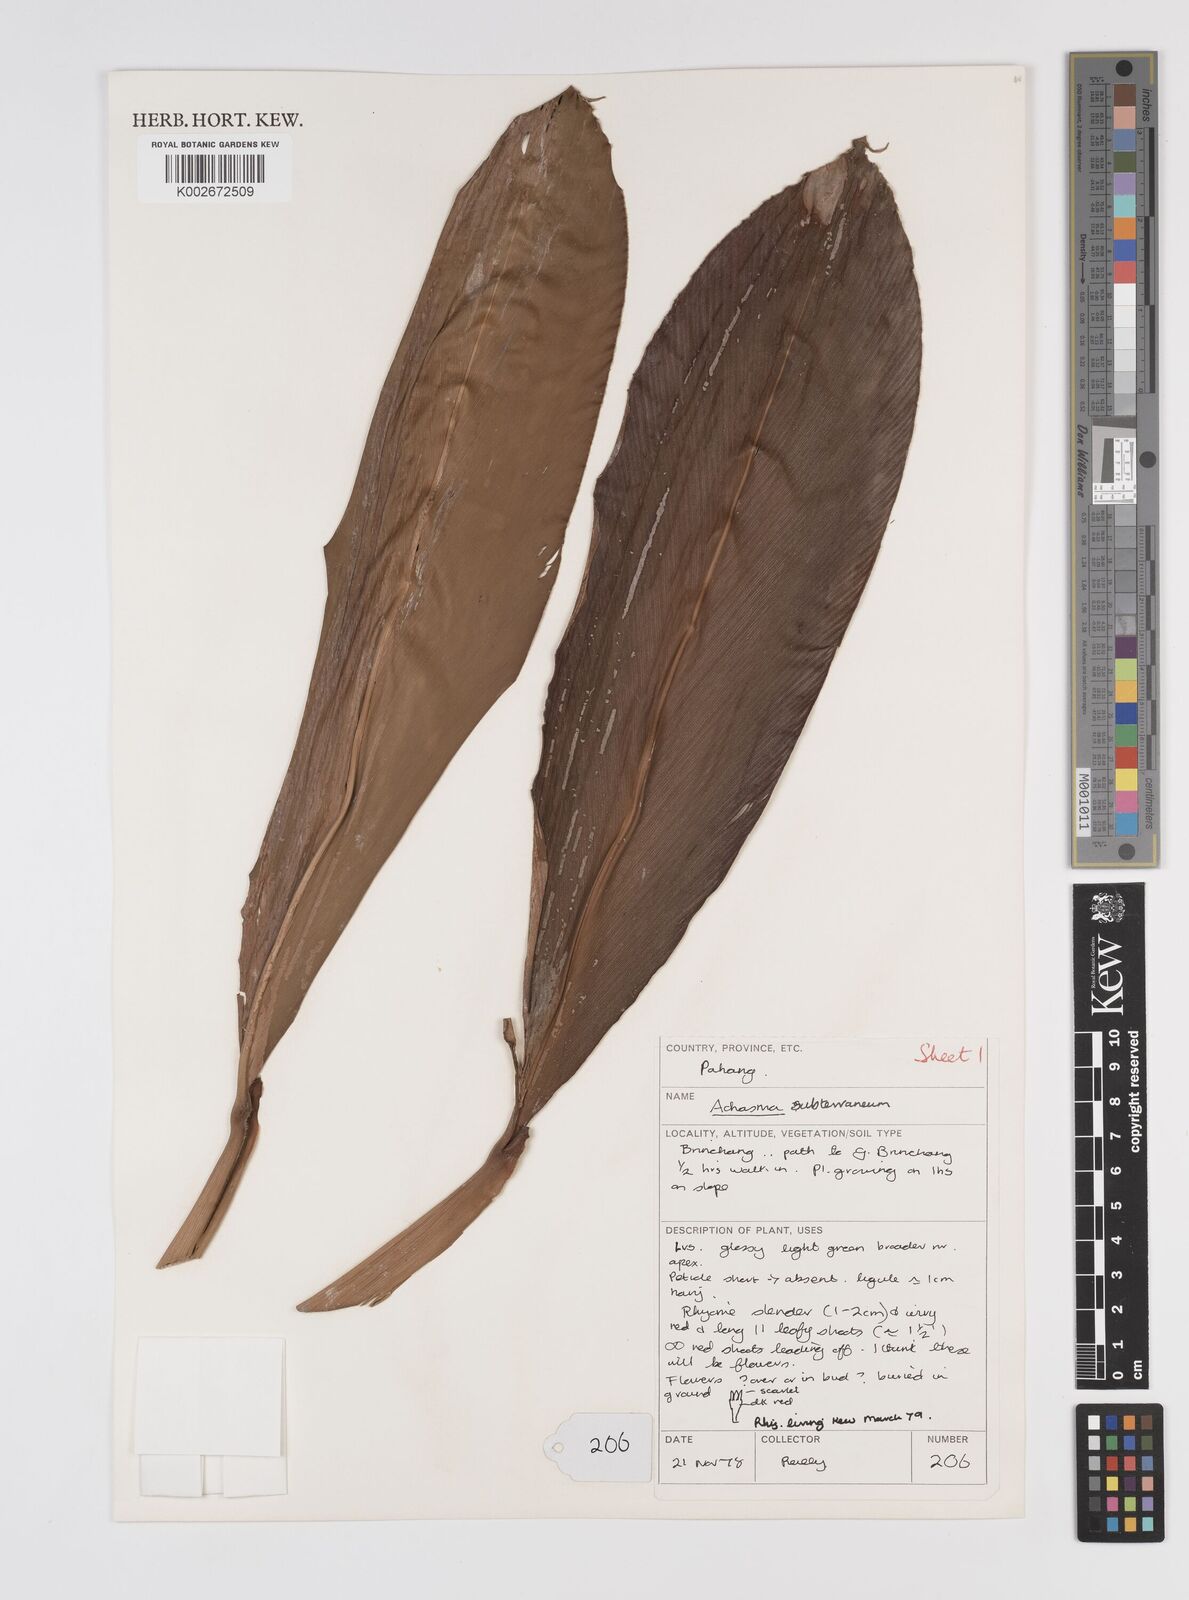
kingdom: Plantae
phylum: Tracheophyta
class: Liliopsida
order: Zingiberales
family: Zingiberaceae
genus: Etlingera
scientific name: Etlingera subterranea
